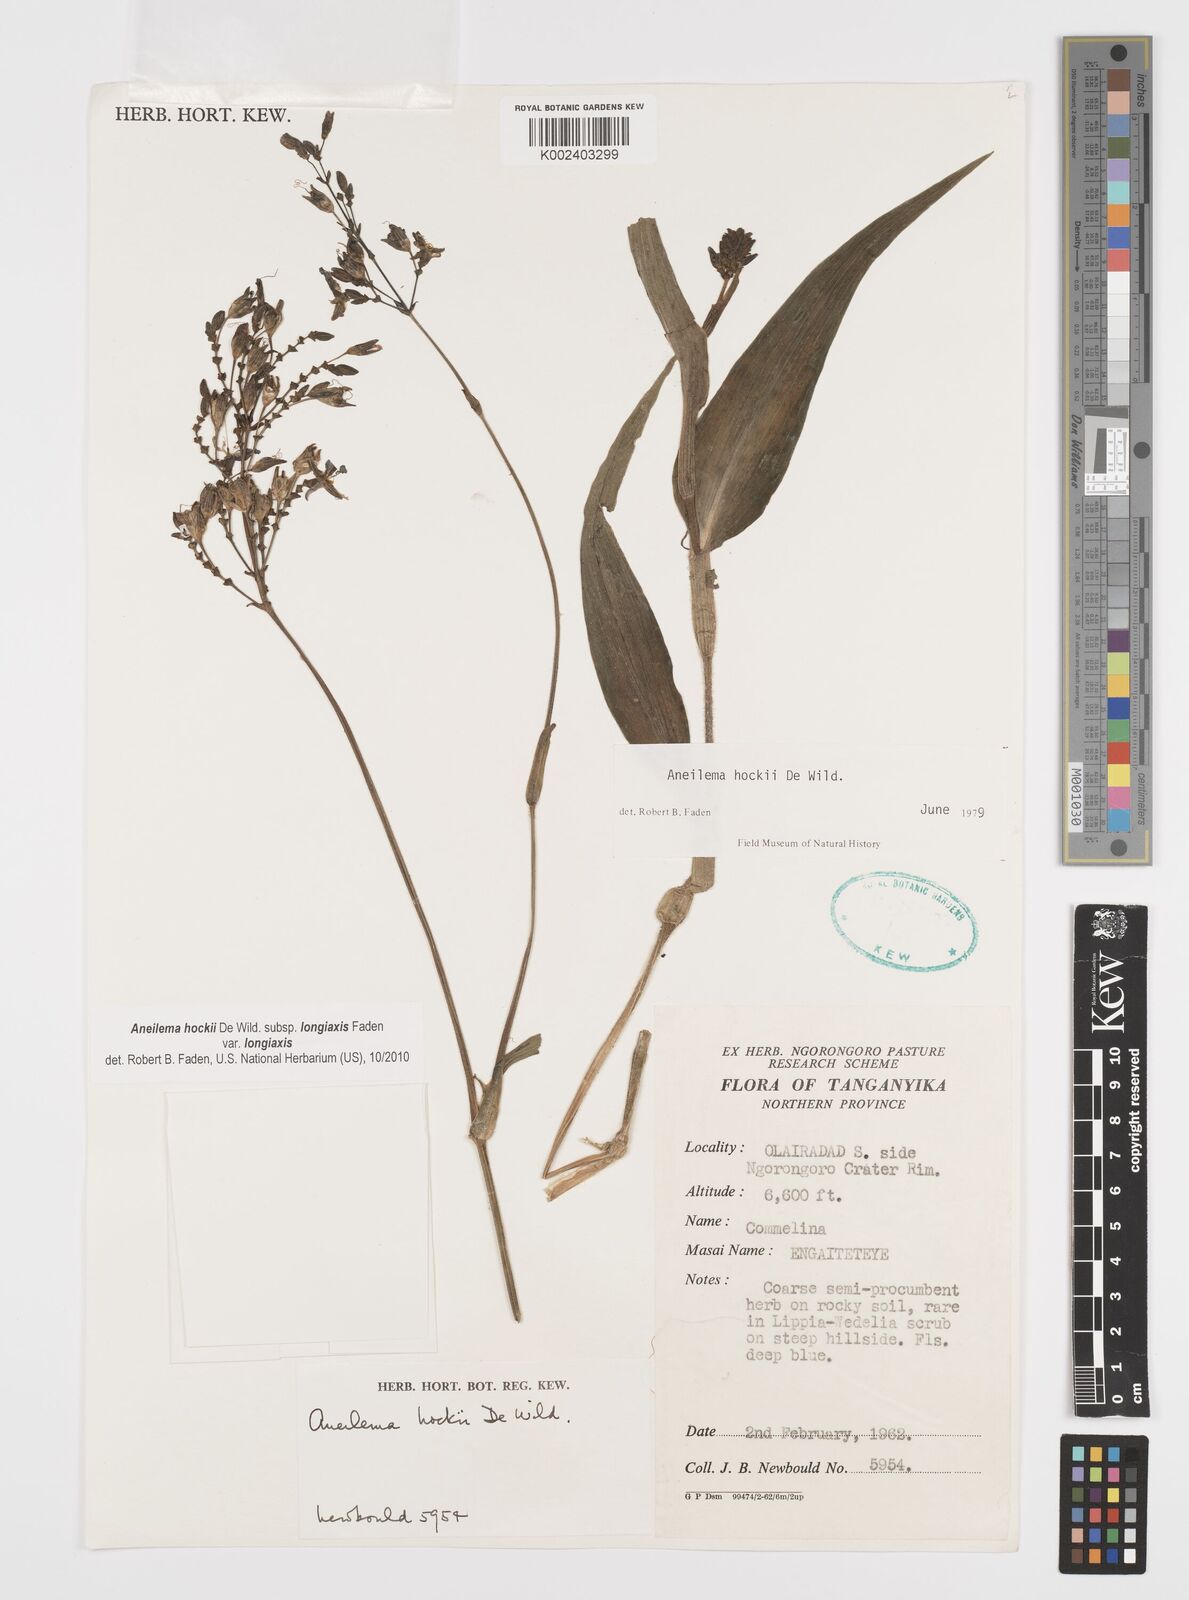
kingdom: Plantae
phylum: Tracheophyta
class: Liliopsida
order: Commelinales
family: Commelinaceae
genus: Aneilema
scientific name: Aneilema hockii
